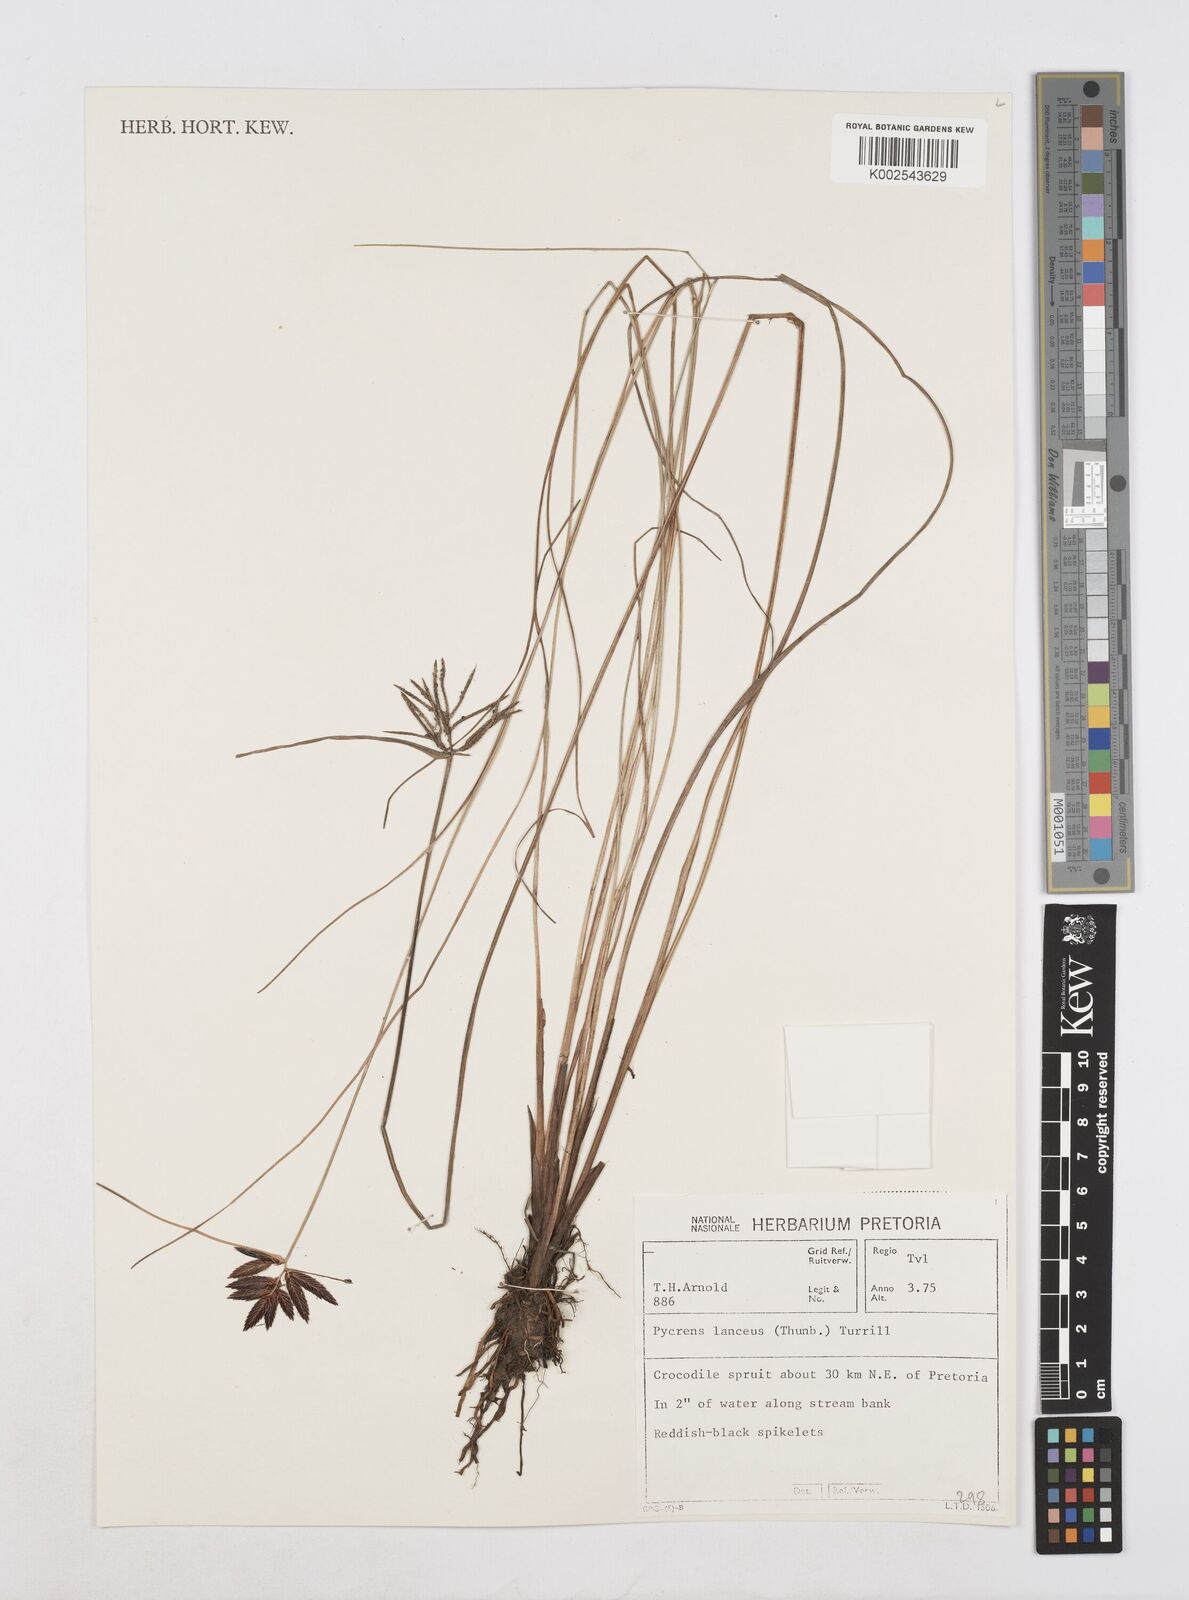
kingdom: Plantae
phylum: Tracheophyta
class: Liliopsida
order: Poales
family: Cyperaceae
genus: Cyperus
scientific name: Cyperus nitidus
